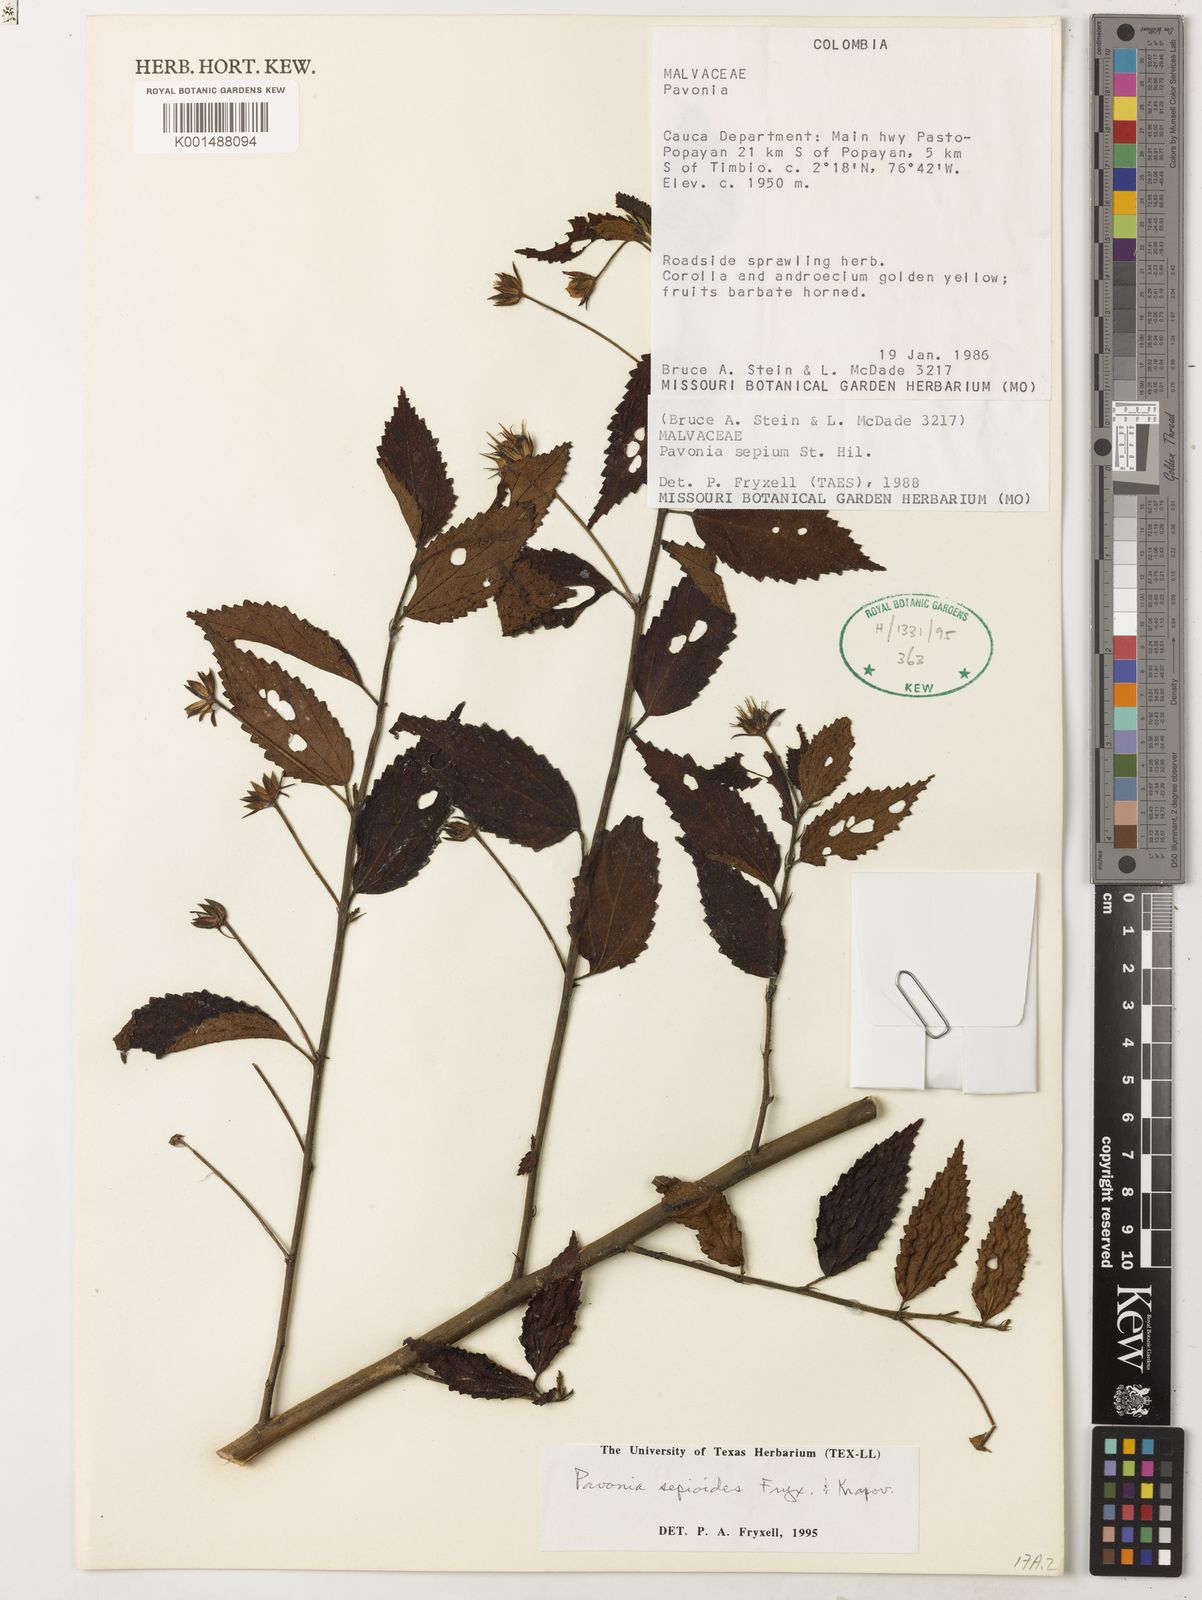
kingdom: Plantae
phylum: Tracheophyta
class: Magnoliopsida
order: Malvales
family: Malvaceae
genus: Pavonia
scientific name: Pavonia sepioides
